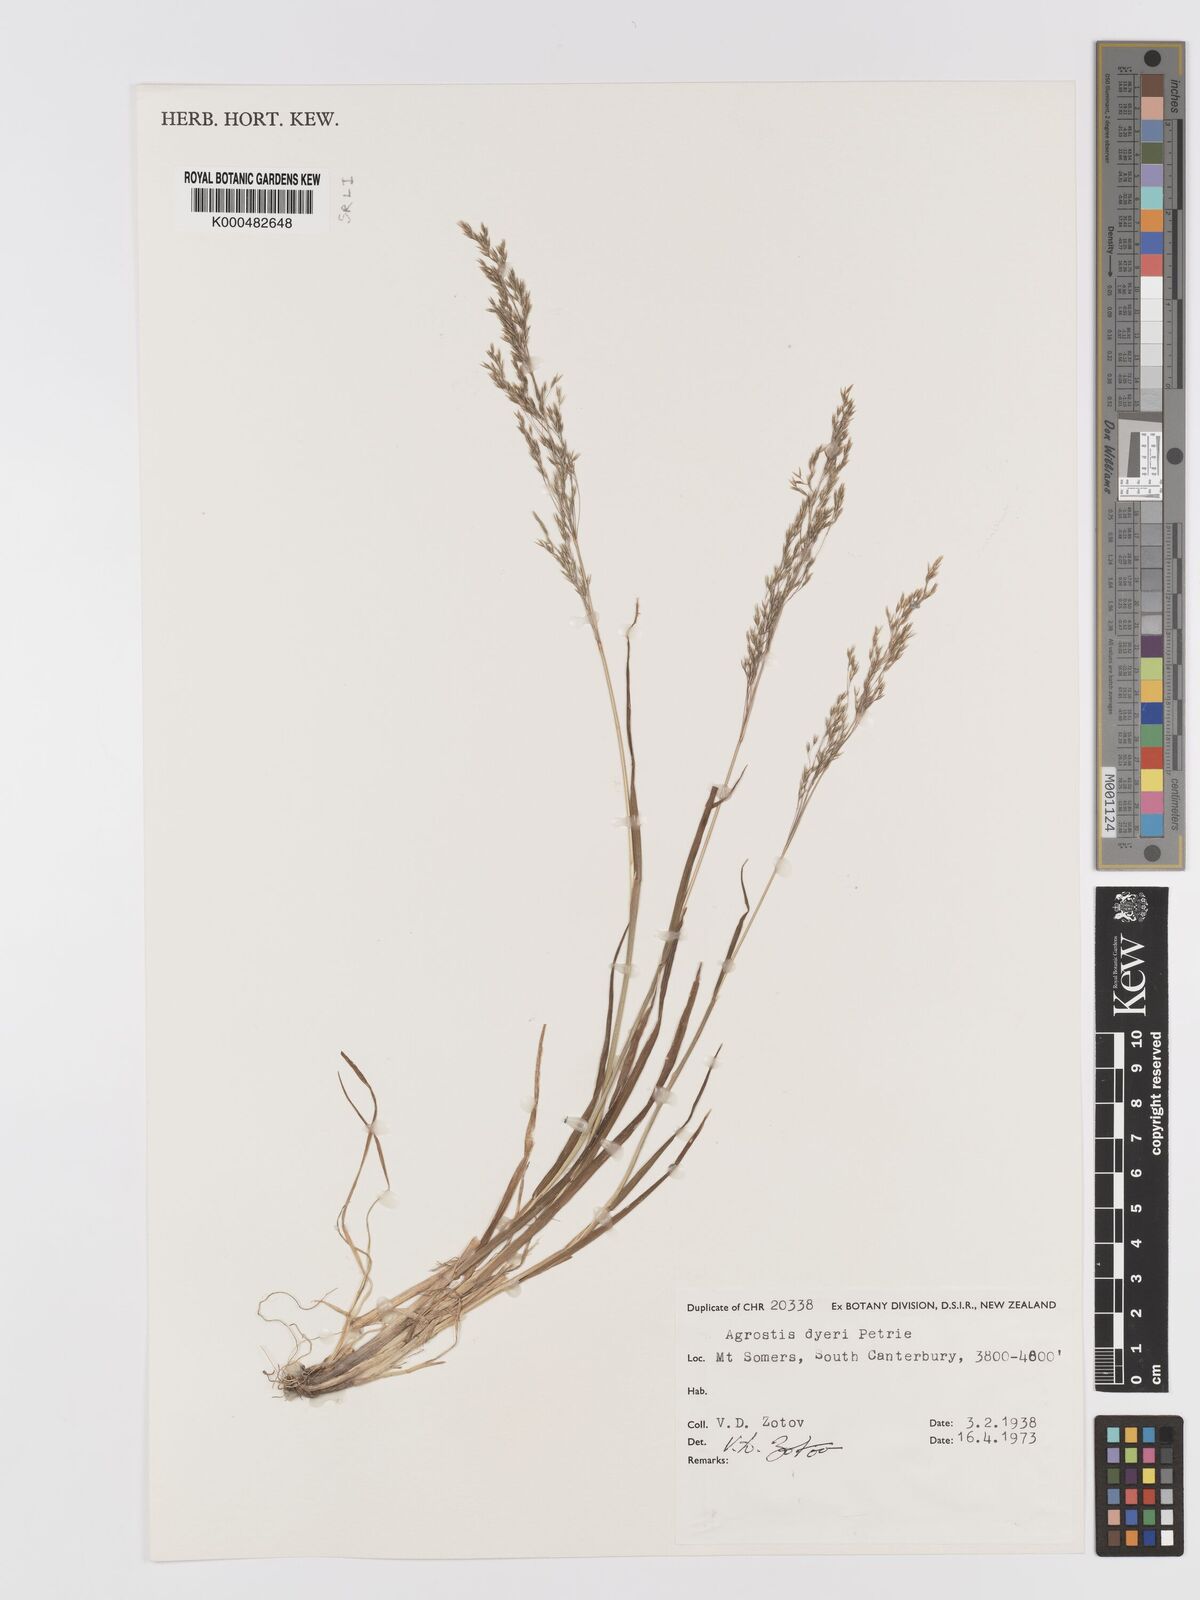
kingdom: Plantae
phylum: Tracheophyta
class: Liliopsida
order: Poales
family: Poaceae
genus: Agrostis
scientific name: Agrostis dyeri
